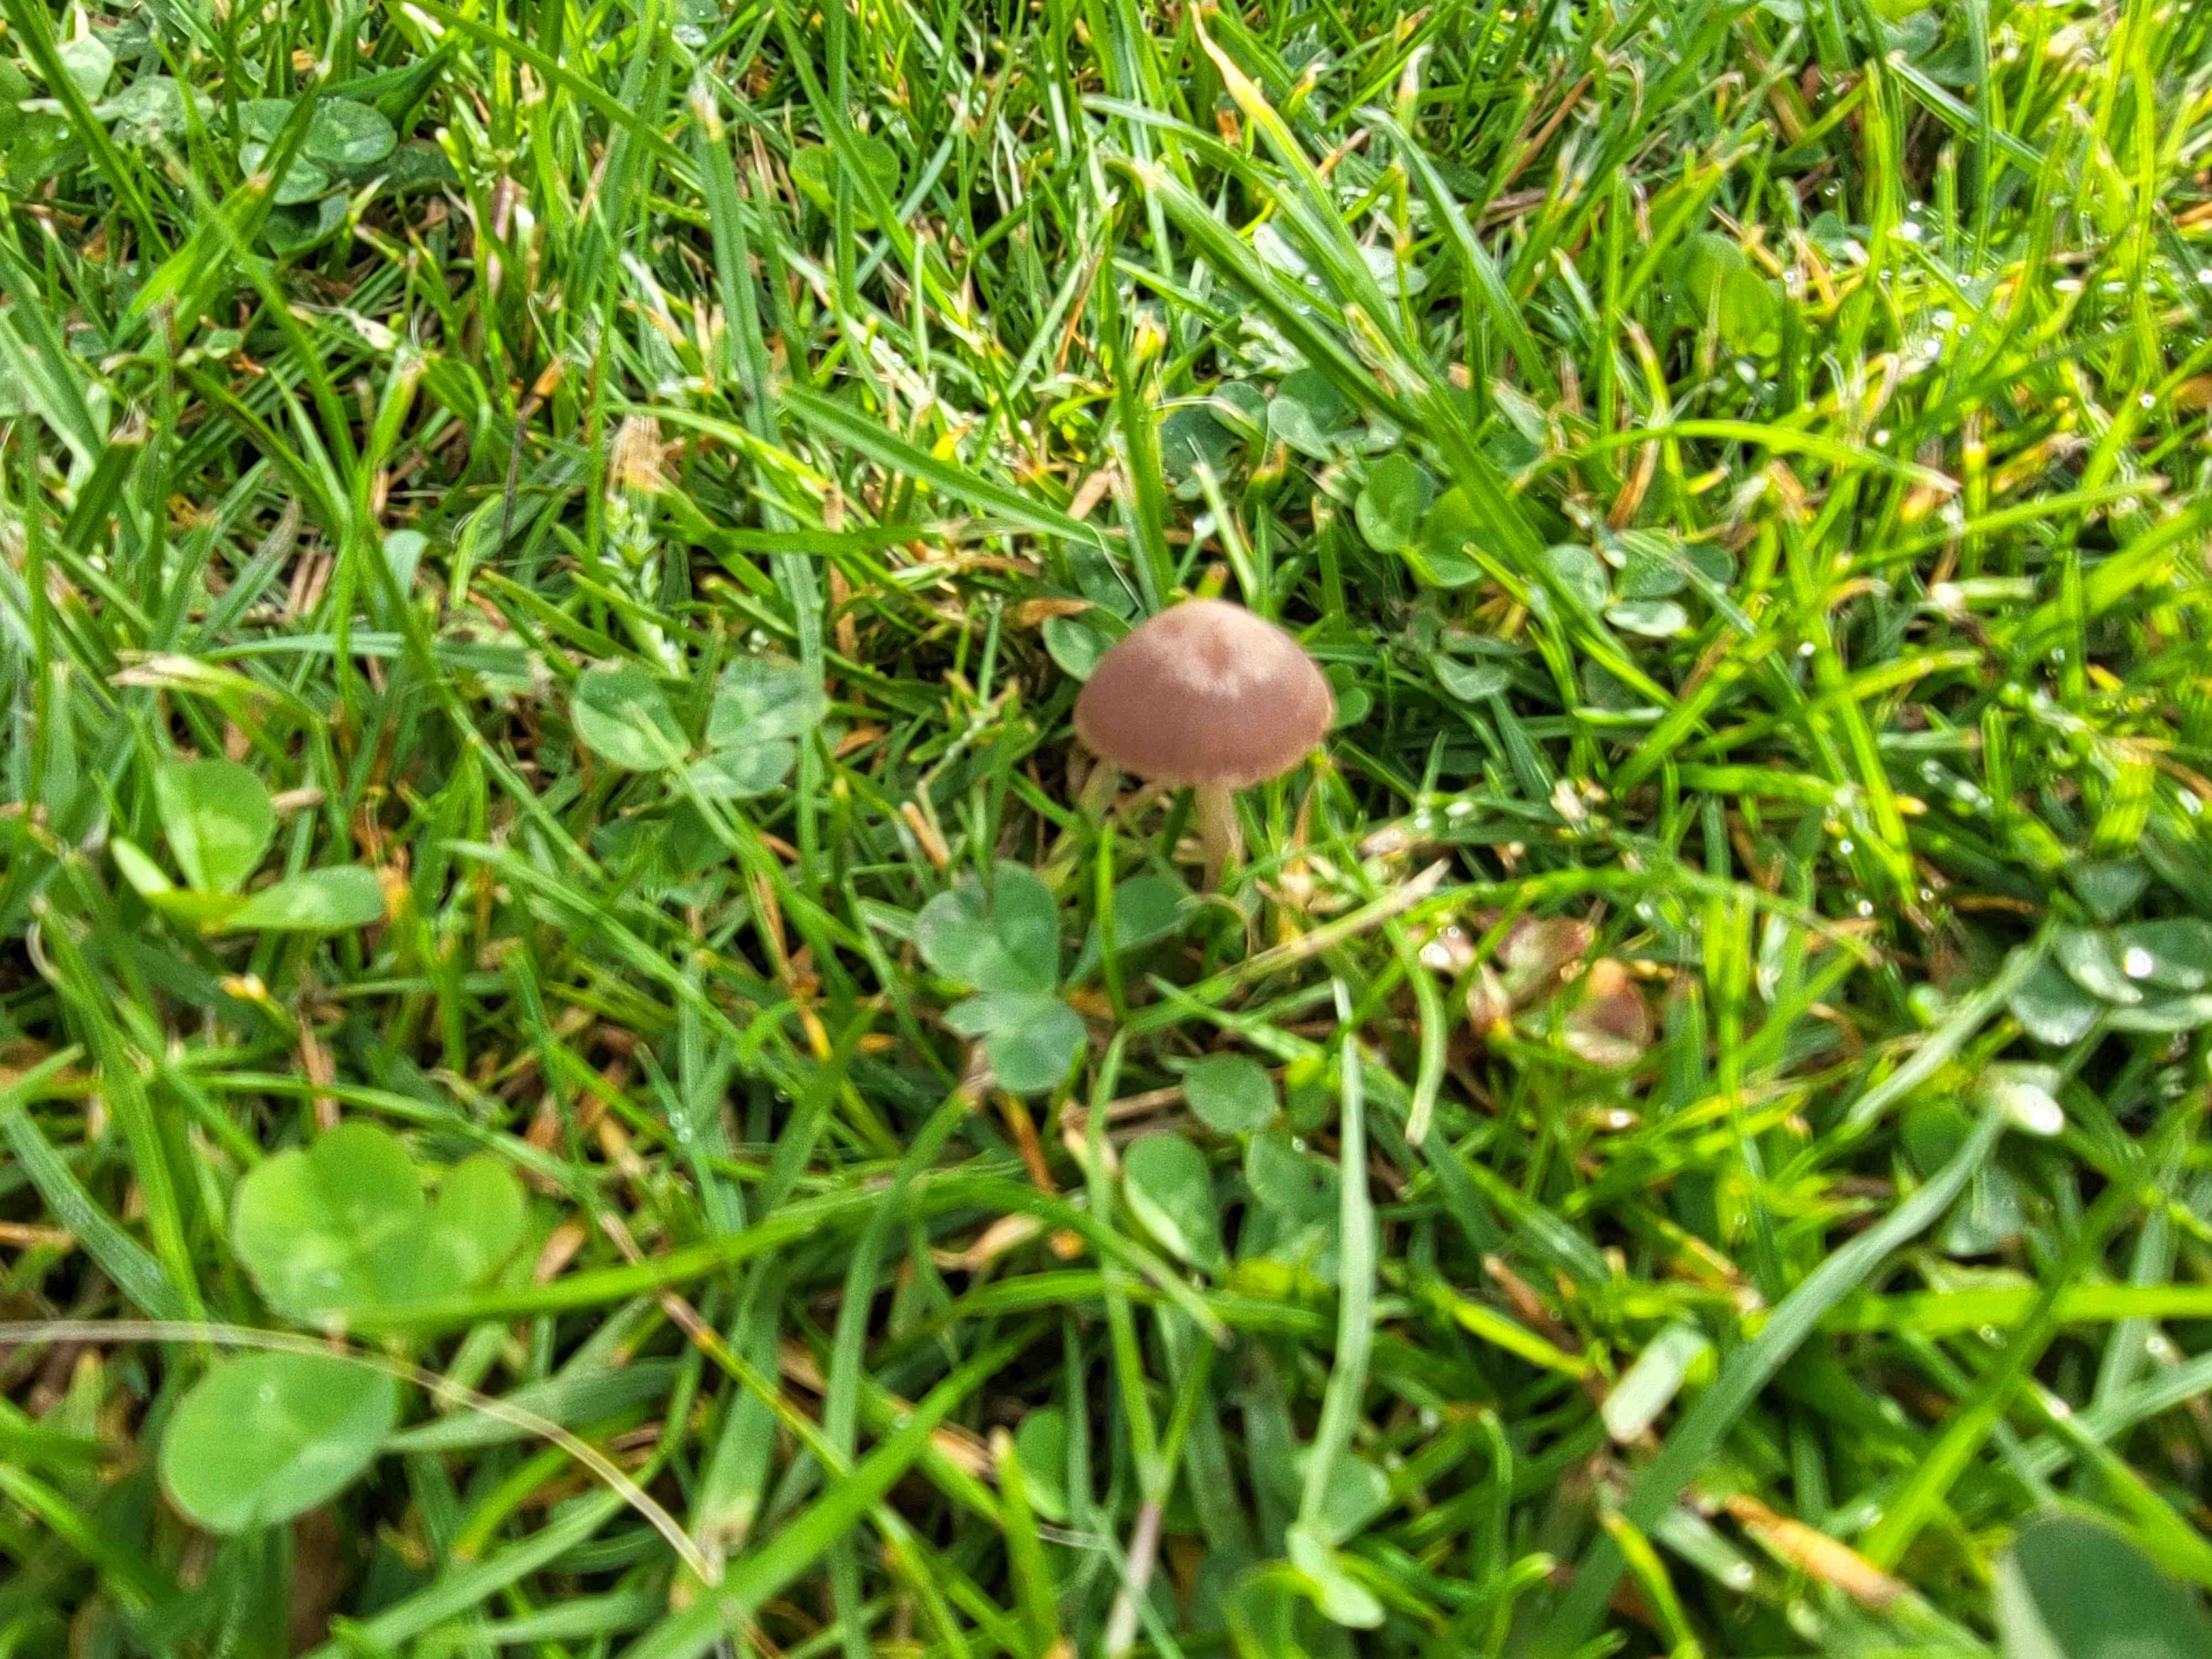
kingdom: Fungi
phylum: Basidiomycota
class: Agaricomycetes
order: Agaricales
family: Bolbitiaceae
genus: Panaeolina
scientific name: Panaeolina foenisecii
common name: høslætsvamp
